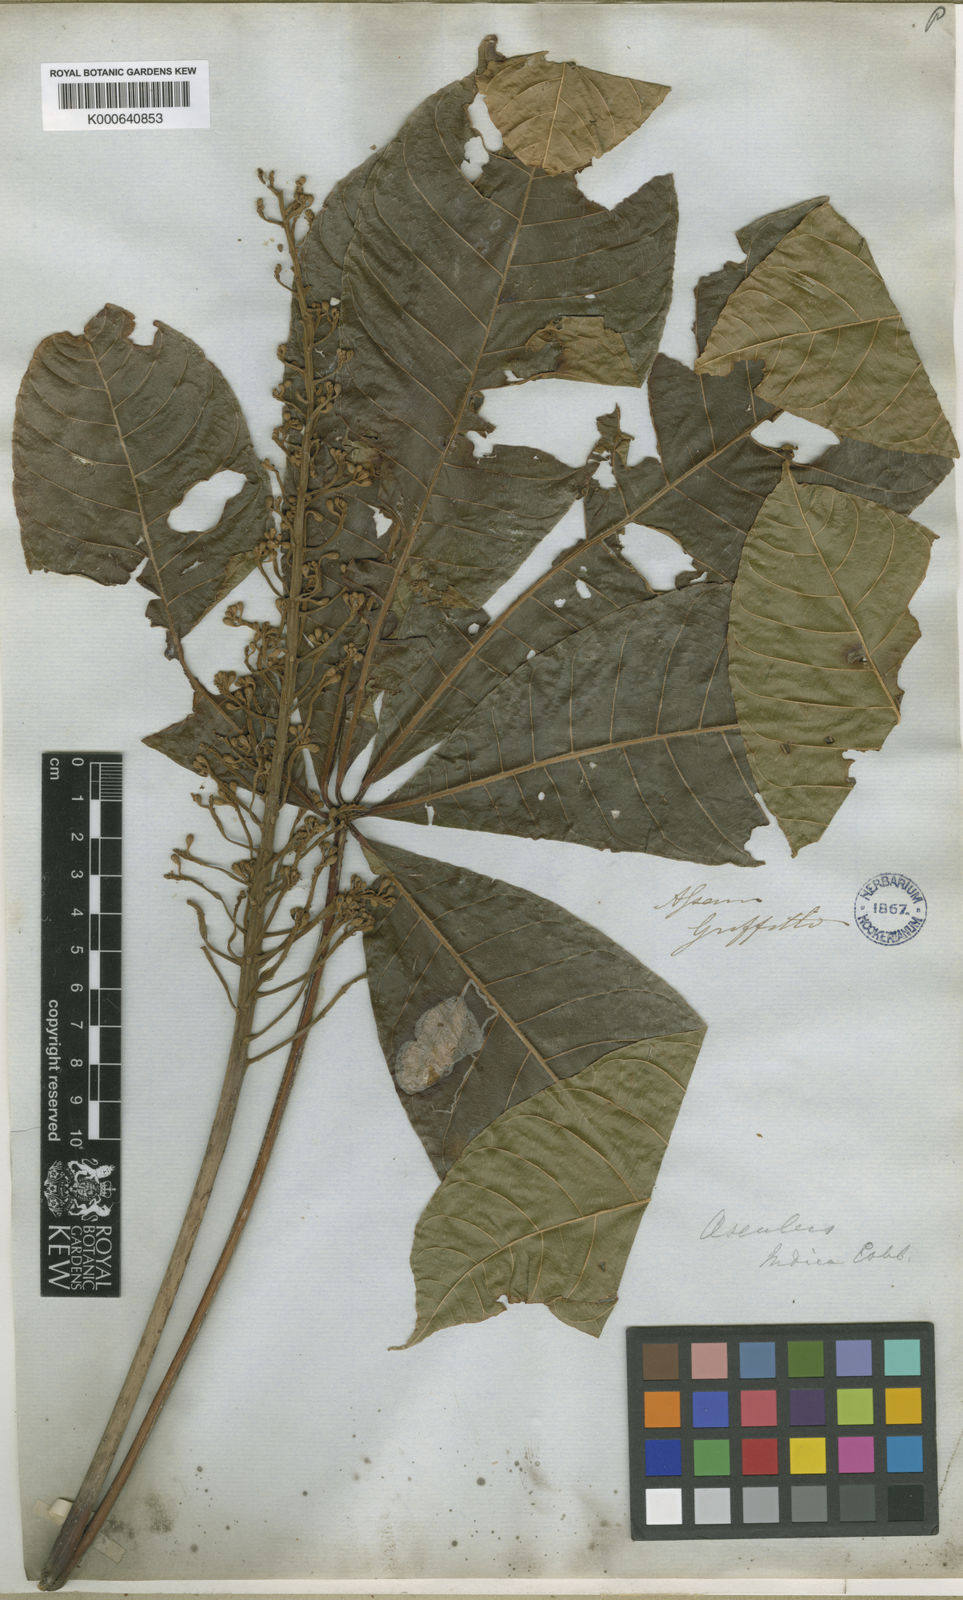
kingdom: Plantae
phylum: Tracheophyta
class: Magnoliopsida
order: Sapindales
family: Sapindaceae
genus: Aesculus
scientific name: Aesculus assamica
